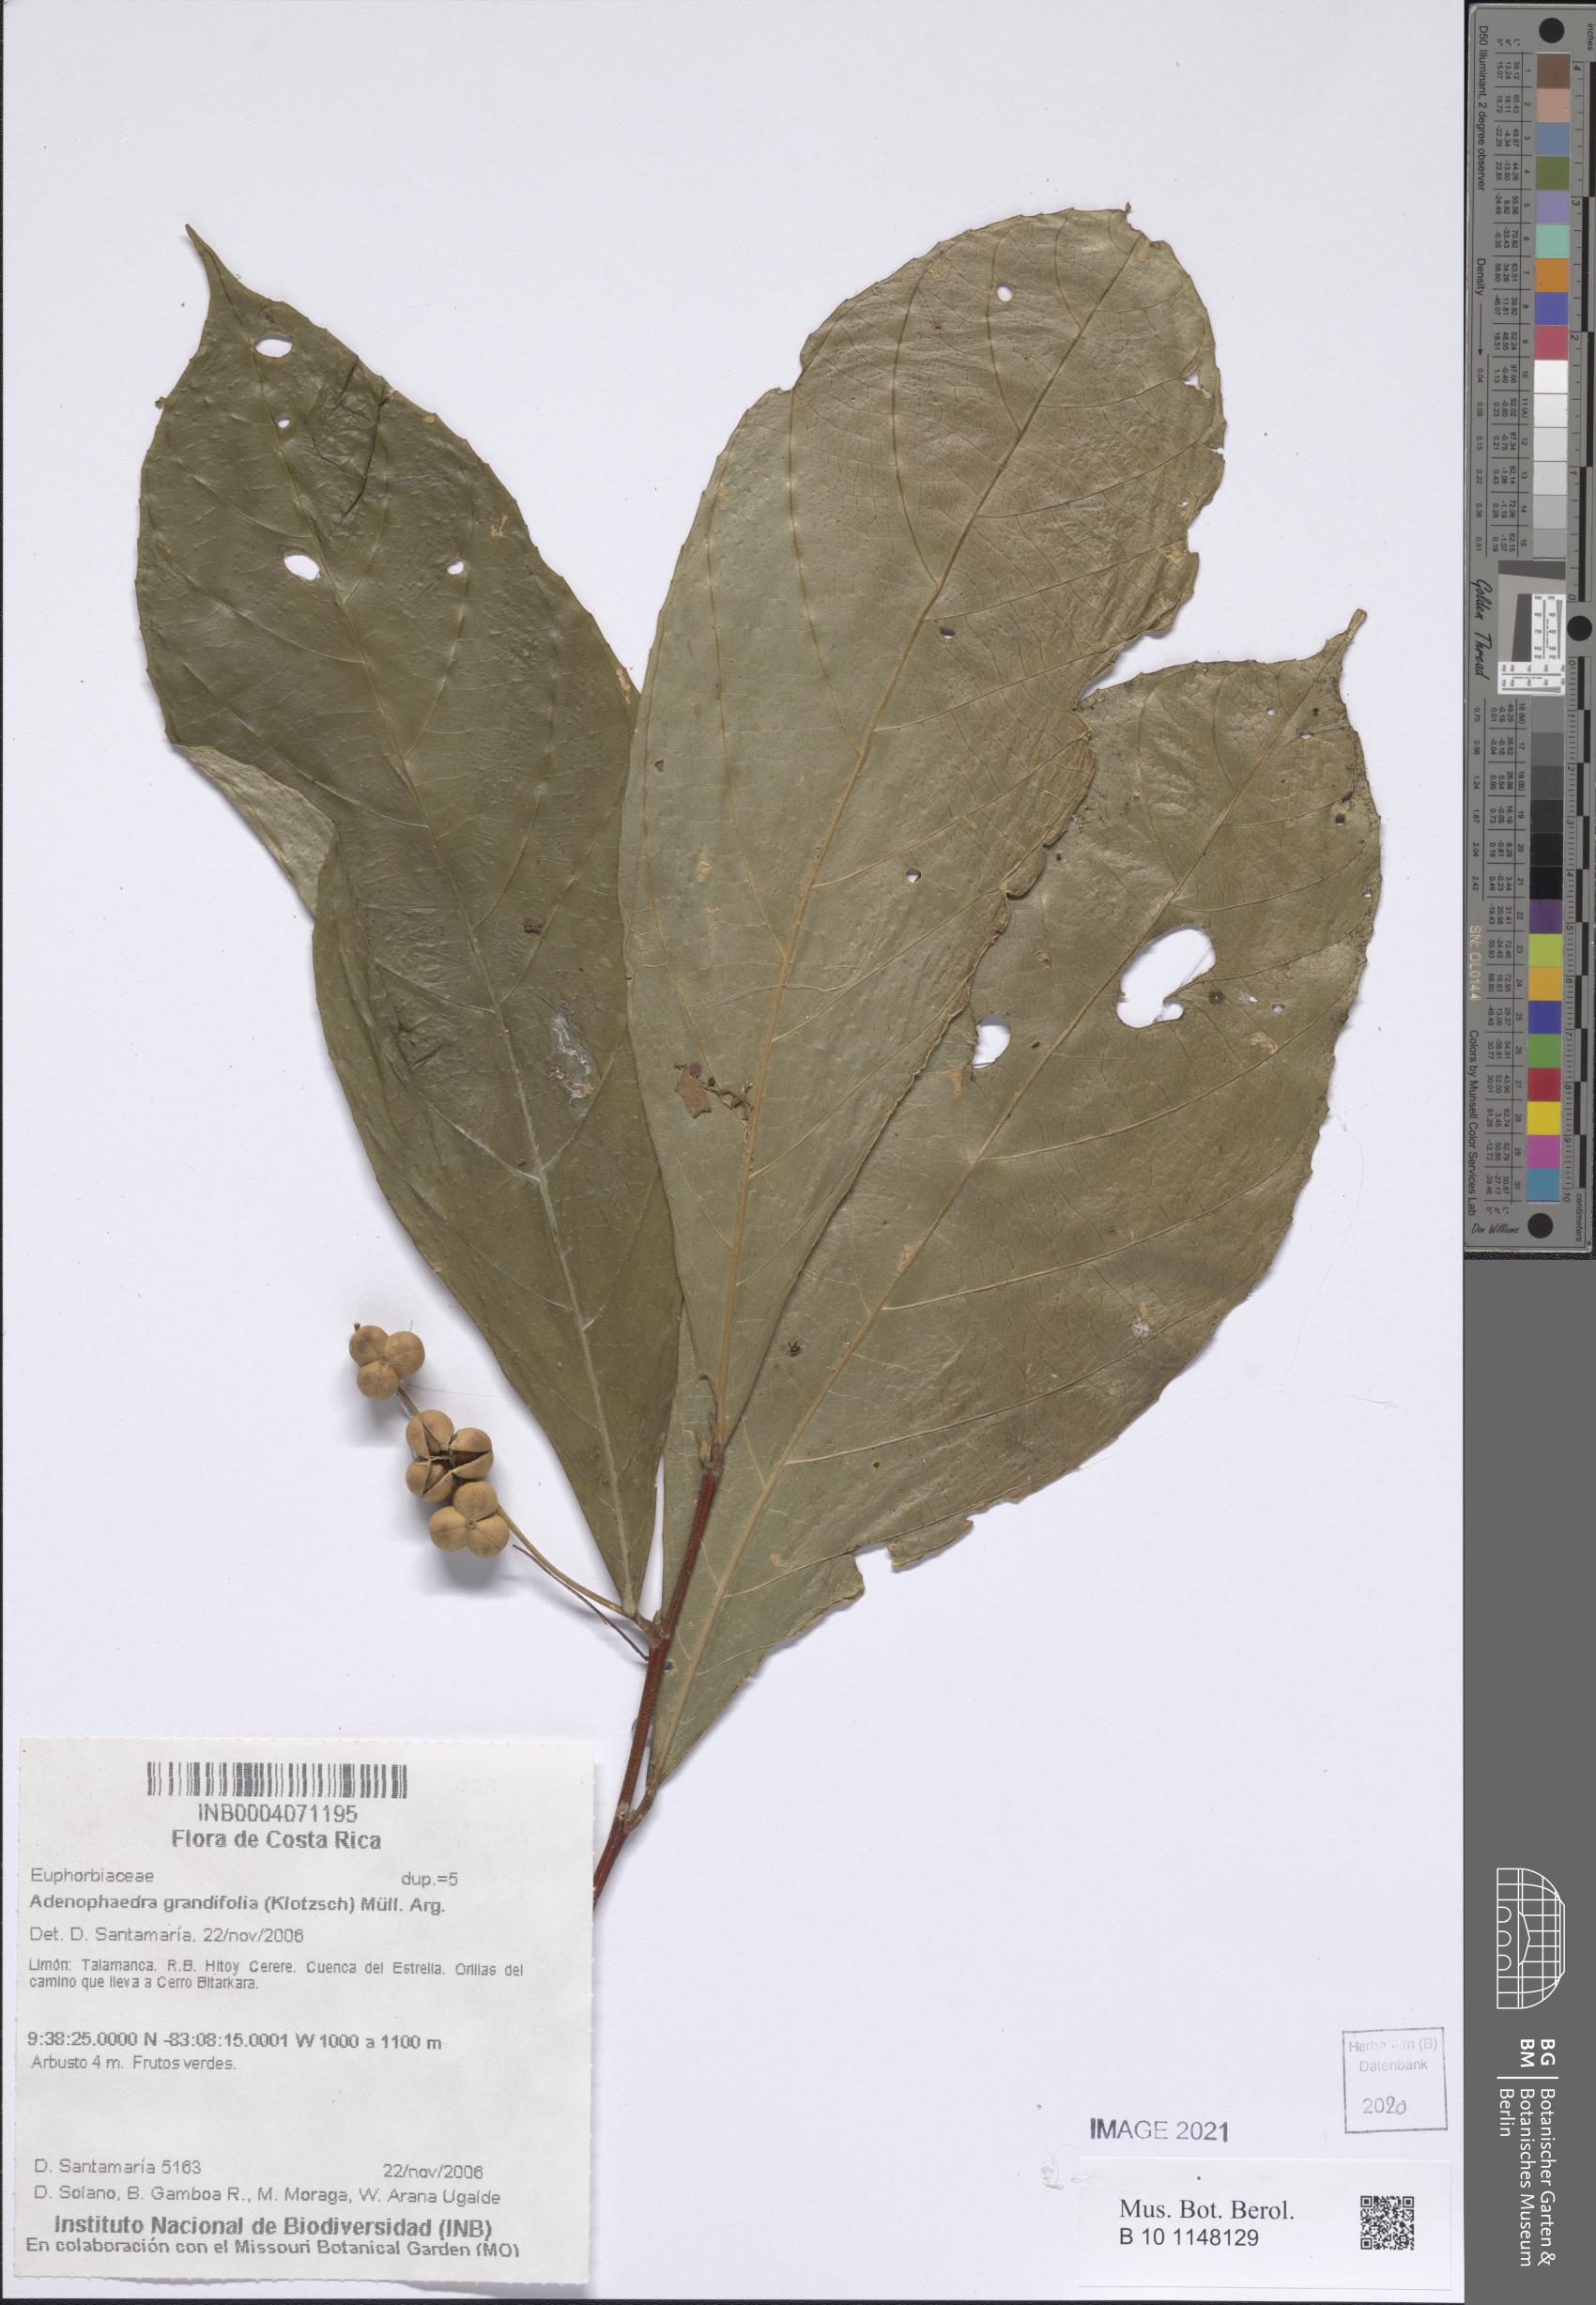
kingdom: Plantae
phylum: Tracheophyta
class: Magnoliopsida
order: Malpighiales
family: Euphorbiaceae
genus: Adenophaedra
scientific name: Adenophaedra grandifolia
